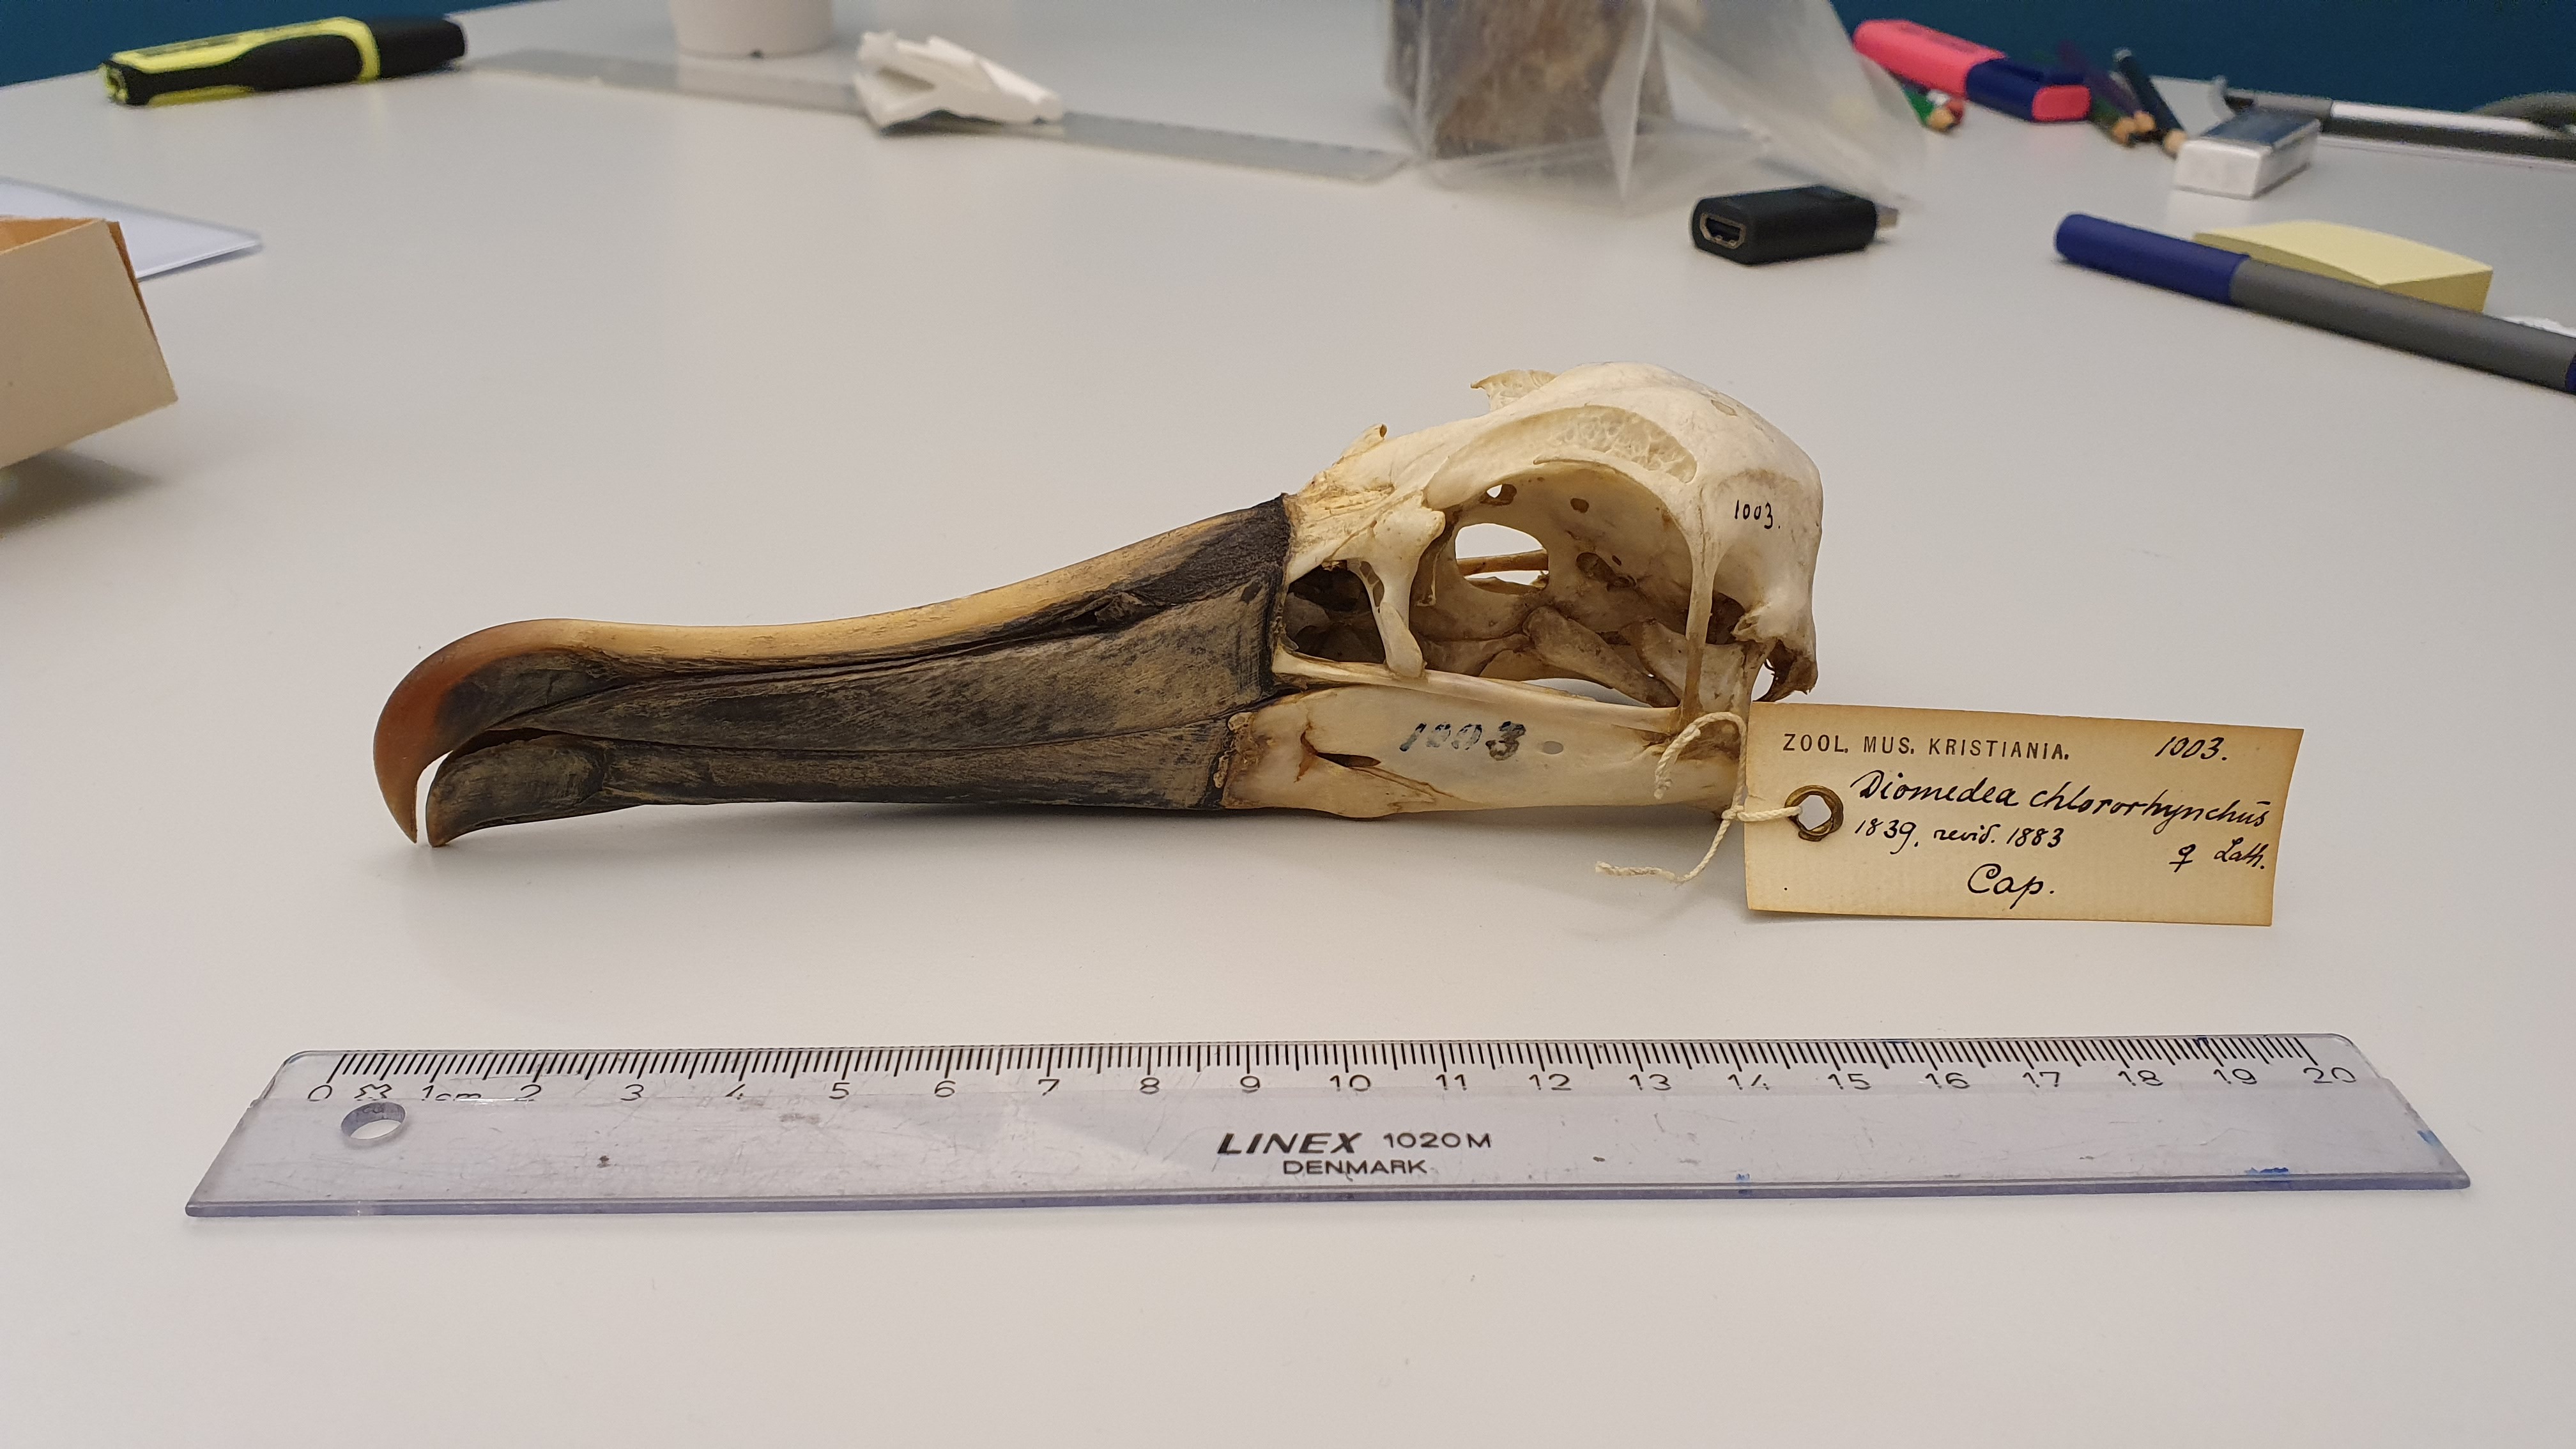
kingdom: Animalia
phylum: Chordata
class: Aves
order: Procellariiformes
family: Diomedeidae
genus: Thalassarche
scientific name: Thalassarche chlororhynchos
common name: Atlantic yellow-nosed albatross
